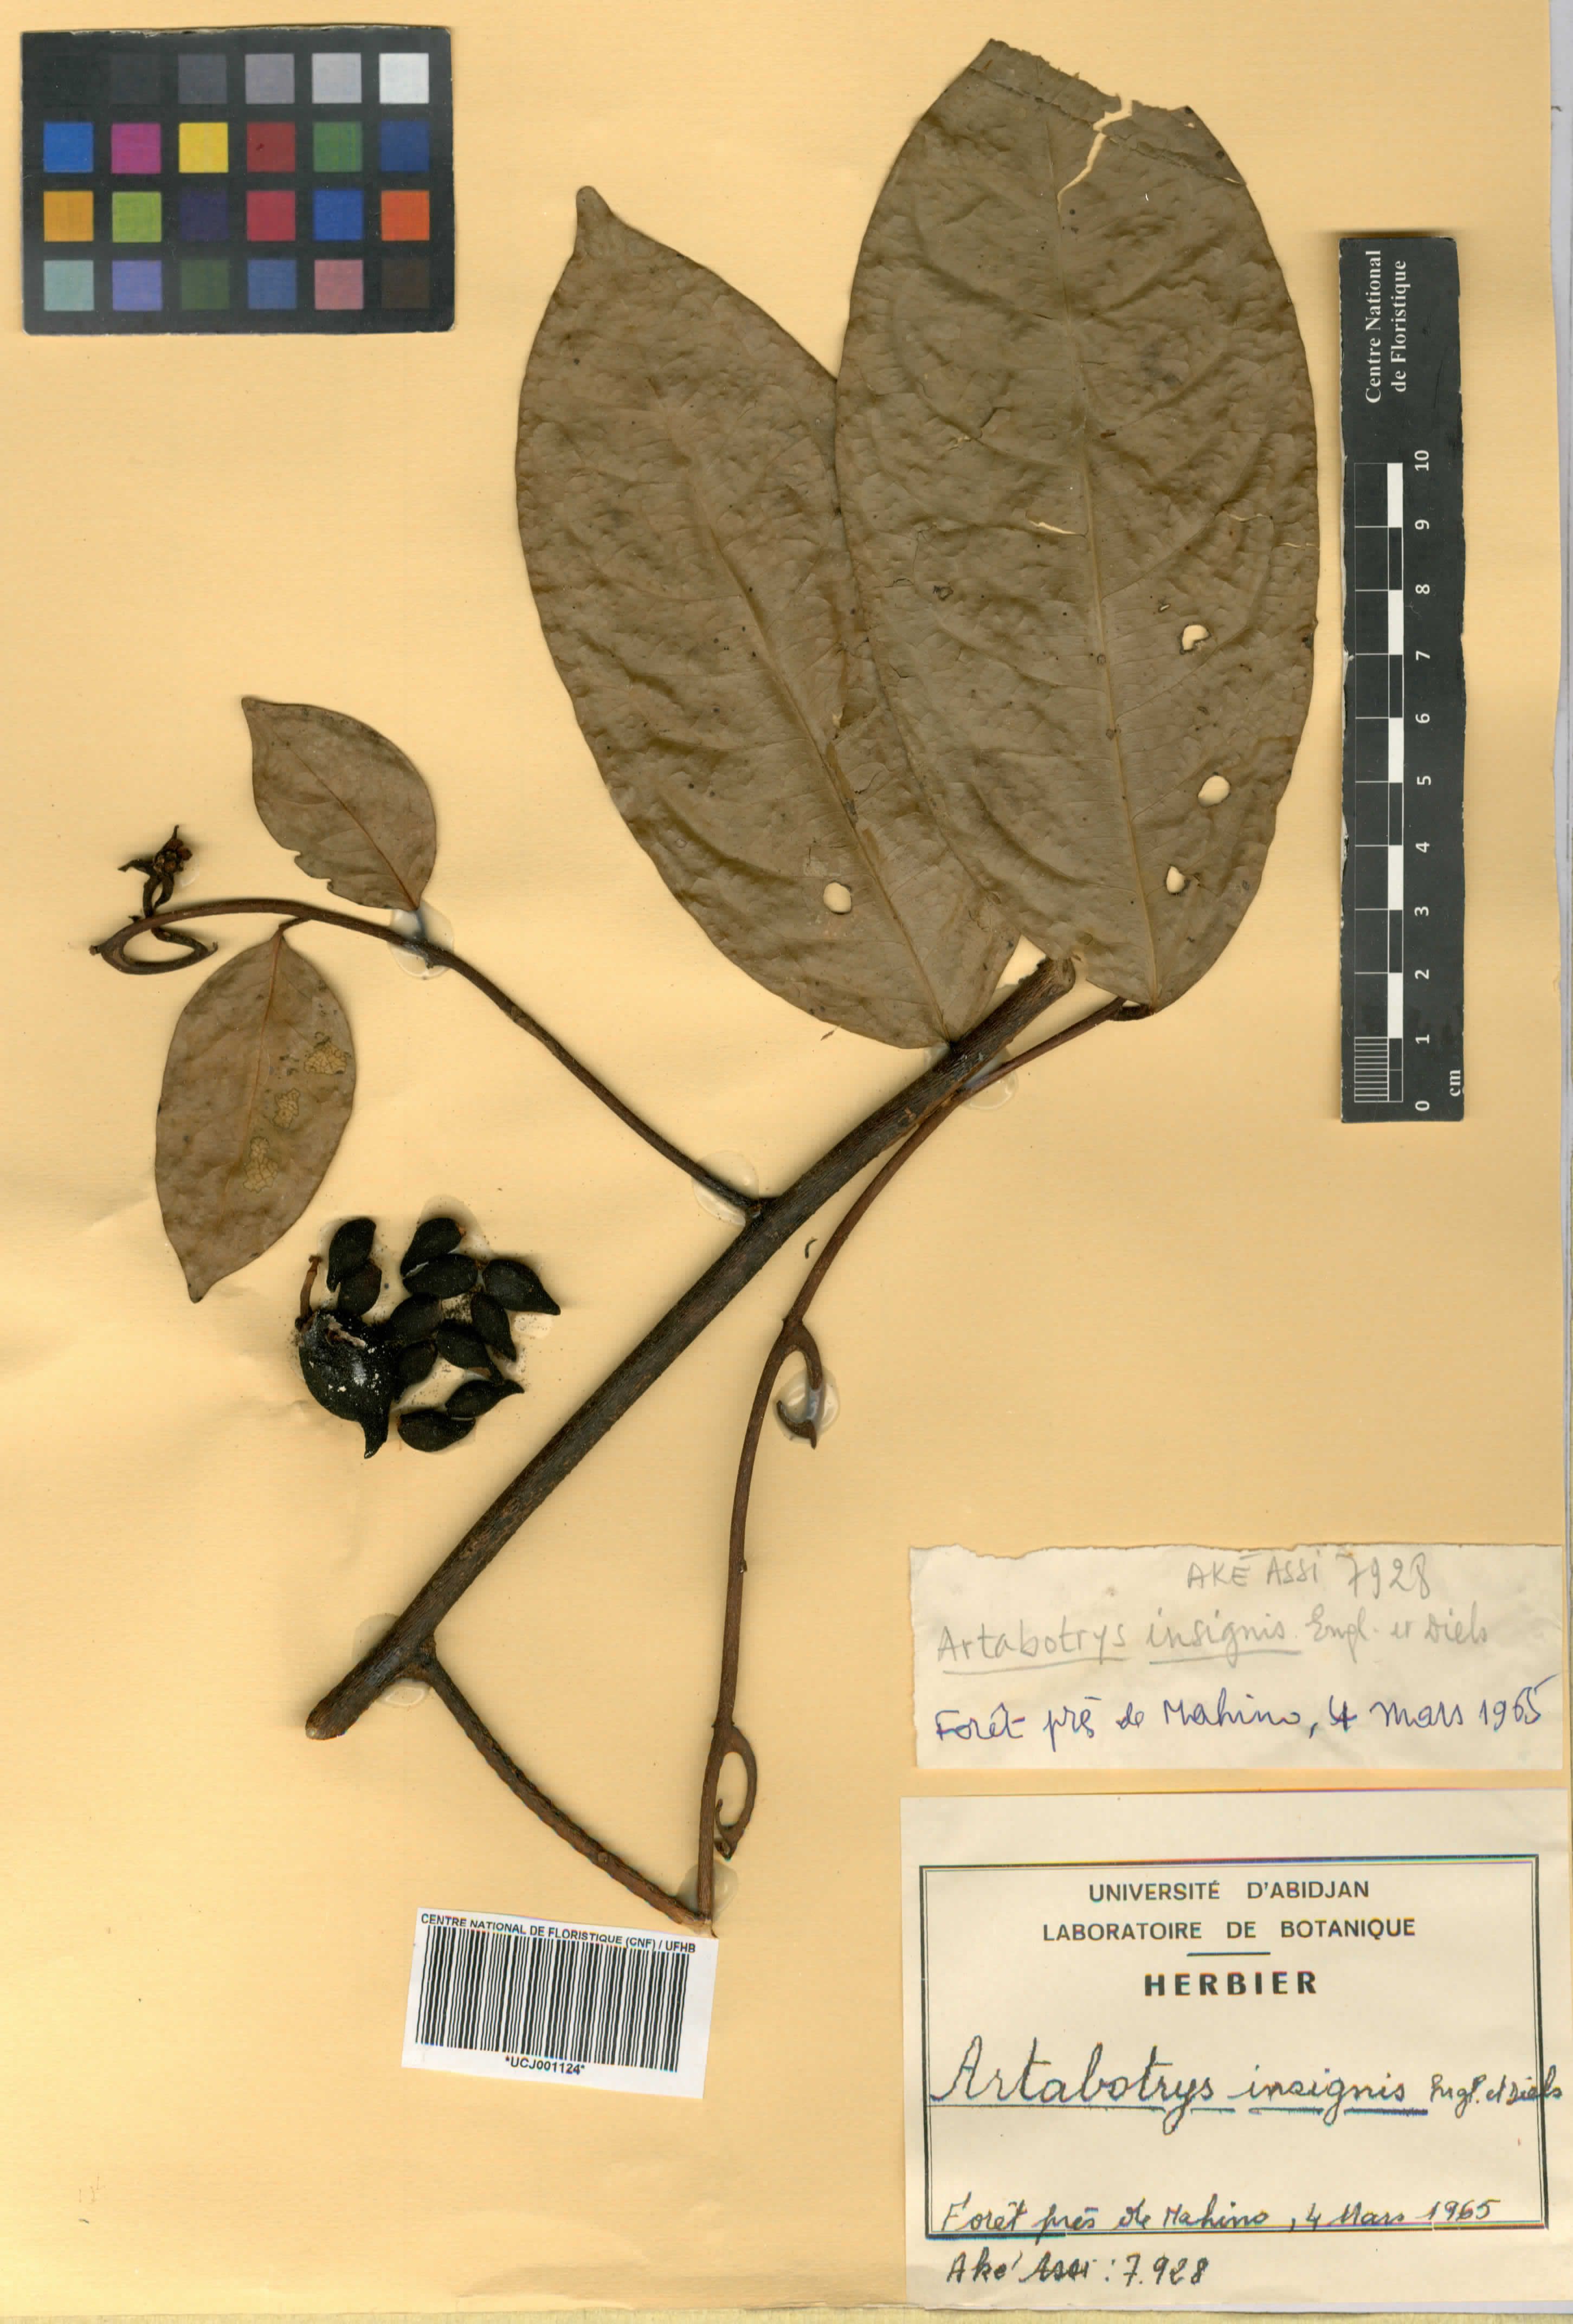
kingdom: Plantae
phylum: Tracheophyta
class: Magnoliopsida
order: Magnoliales
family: Annonaceae
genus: Artabotrys
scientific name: Artabotrys insignis
